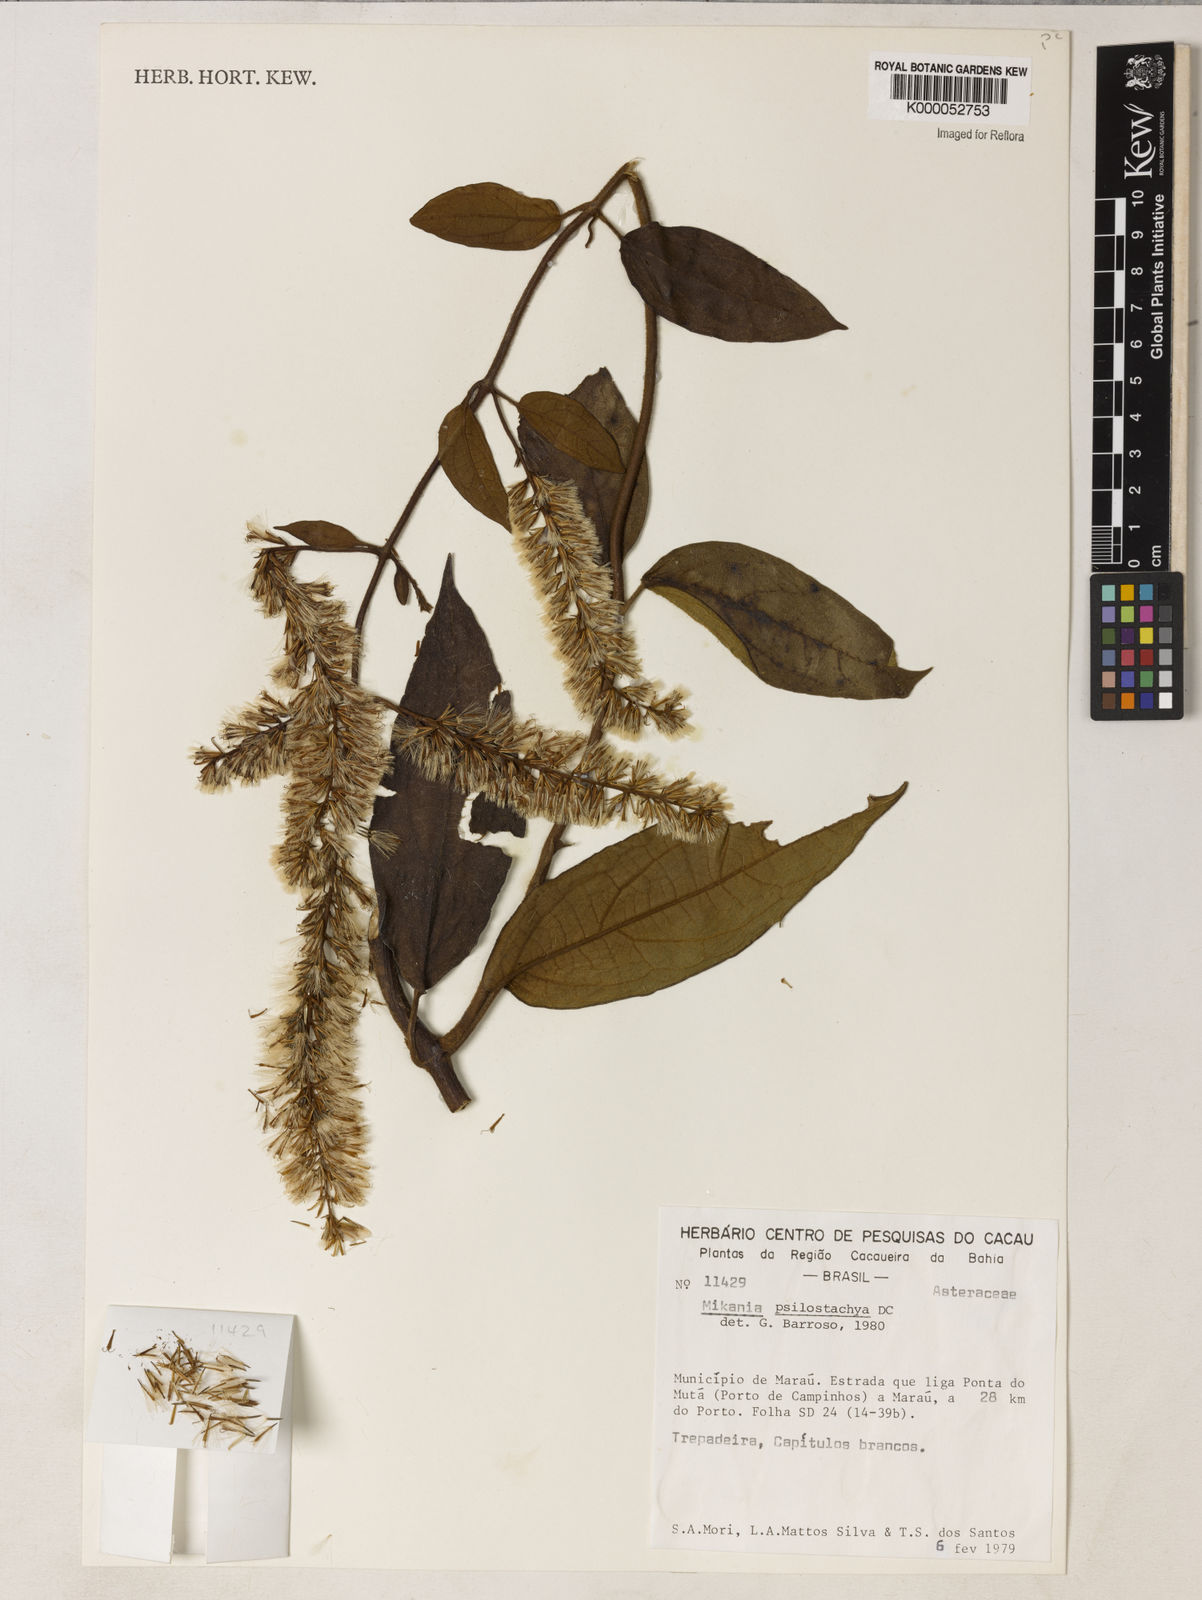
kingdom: Plantae
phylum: Tracheophyta
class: Magnoliopsida
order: Asterales
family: Asteraceae
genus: Mikania
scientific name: Mikania psilostachya
